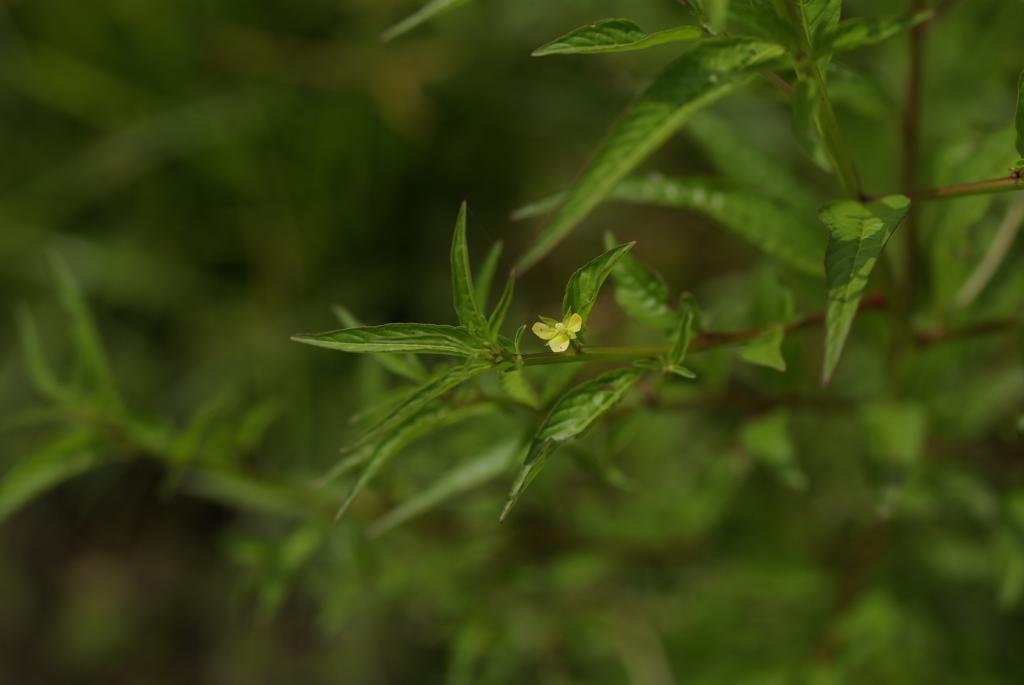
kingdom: Plantae
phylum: Tracheophyta
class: Magnoliopsida
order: Myrtales
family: Onagraceae
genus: Ludwigia
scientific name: Ludwigia epilobioides
